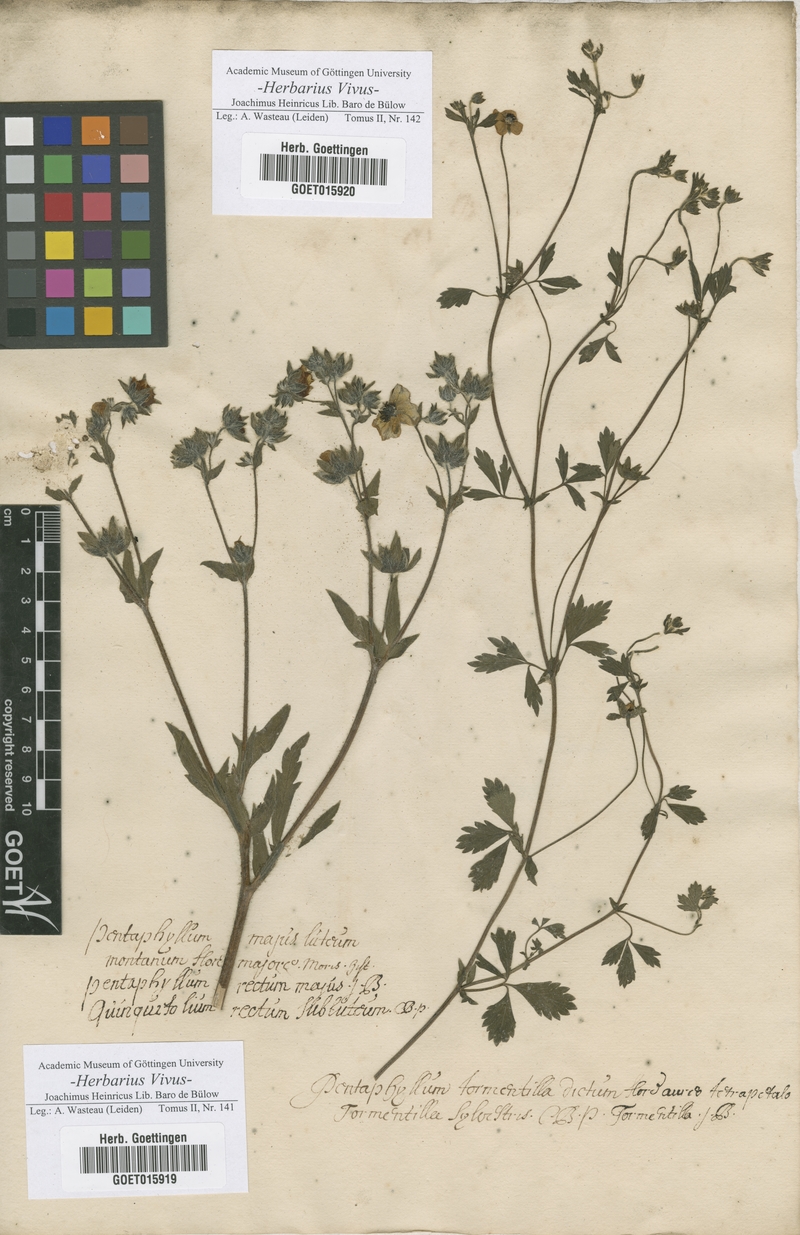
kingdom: Plantae
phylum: Tracheophyta
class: Magnoliopsida
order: Rosales
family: Rosaceae
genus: Potentilla
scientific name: Potentilla recta
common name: Sulphur cinquefoil
